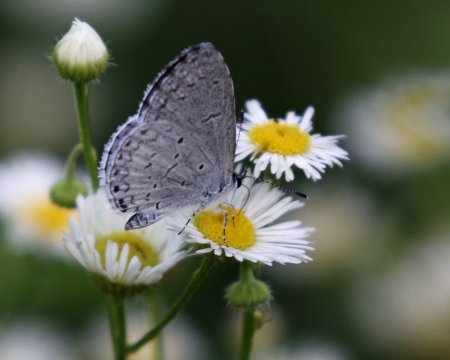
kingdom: Animalia
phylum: Arthropoda
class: Insecta
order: Lepidoptera
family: Lycaenidae
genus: Cyaniris
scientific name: Cyaniris neglecta
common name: Summer Azure
